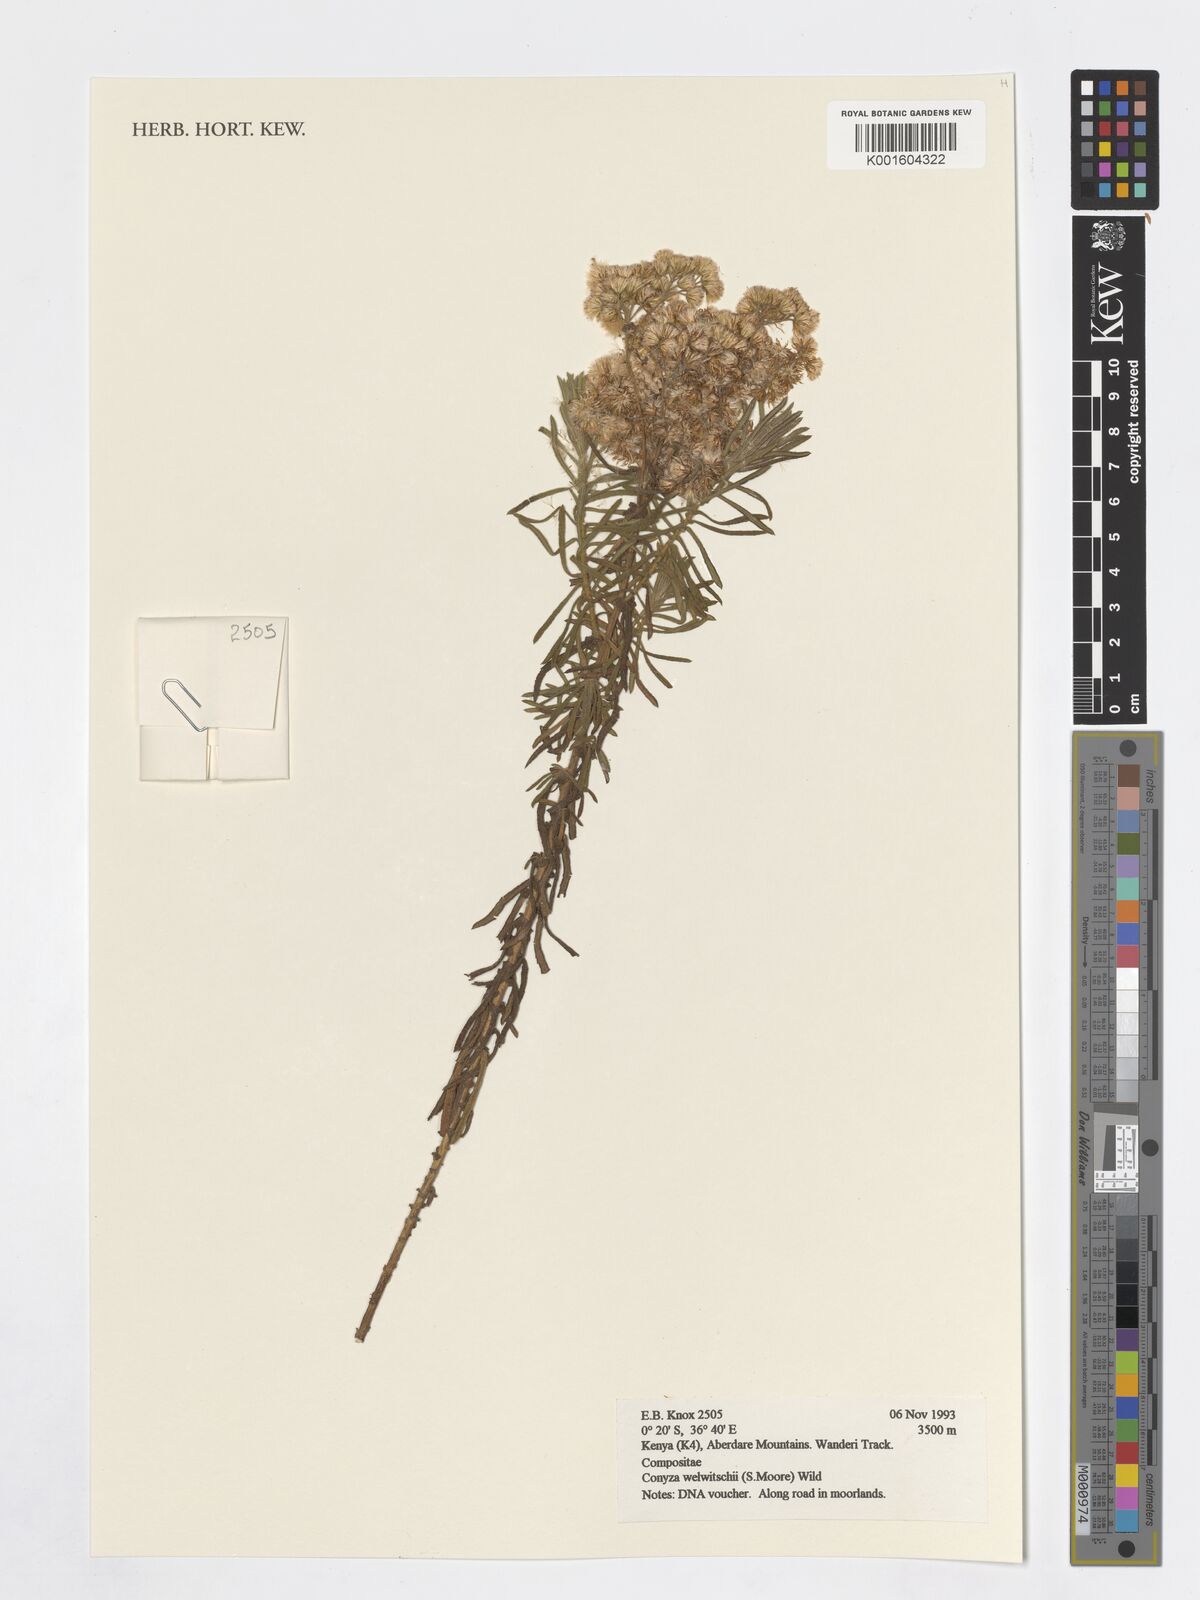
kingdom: Plantae
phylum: Tracheophyta
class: Magnoliopsida
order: Asterales
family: Asteraceae
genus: Nidorella
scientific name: Nidorella welwitschii
